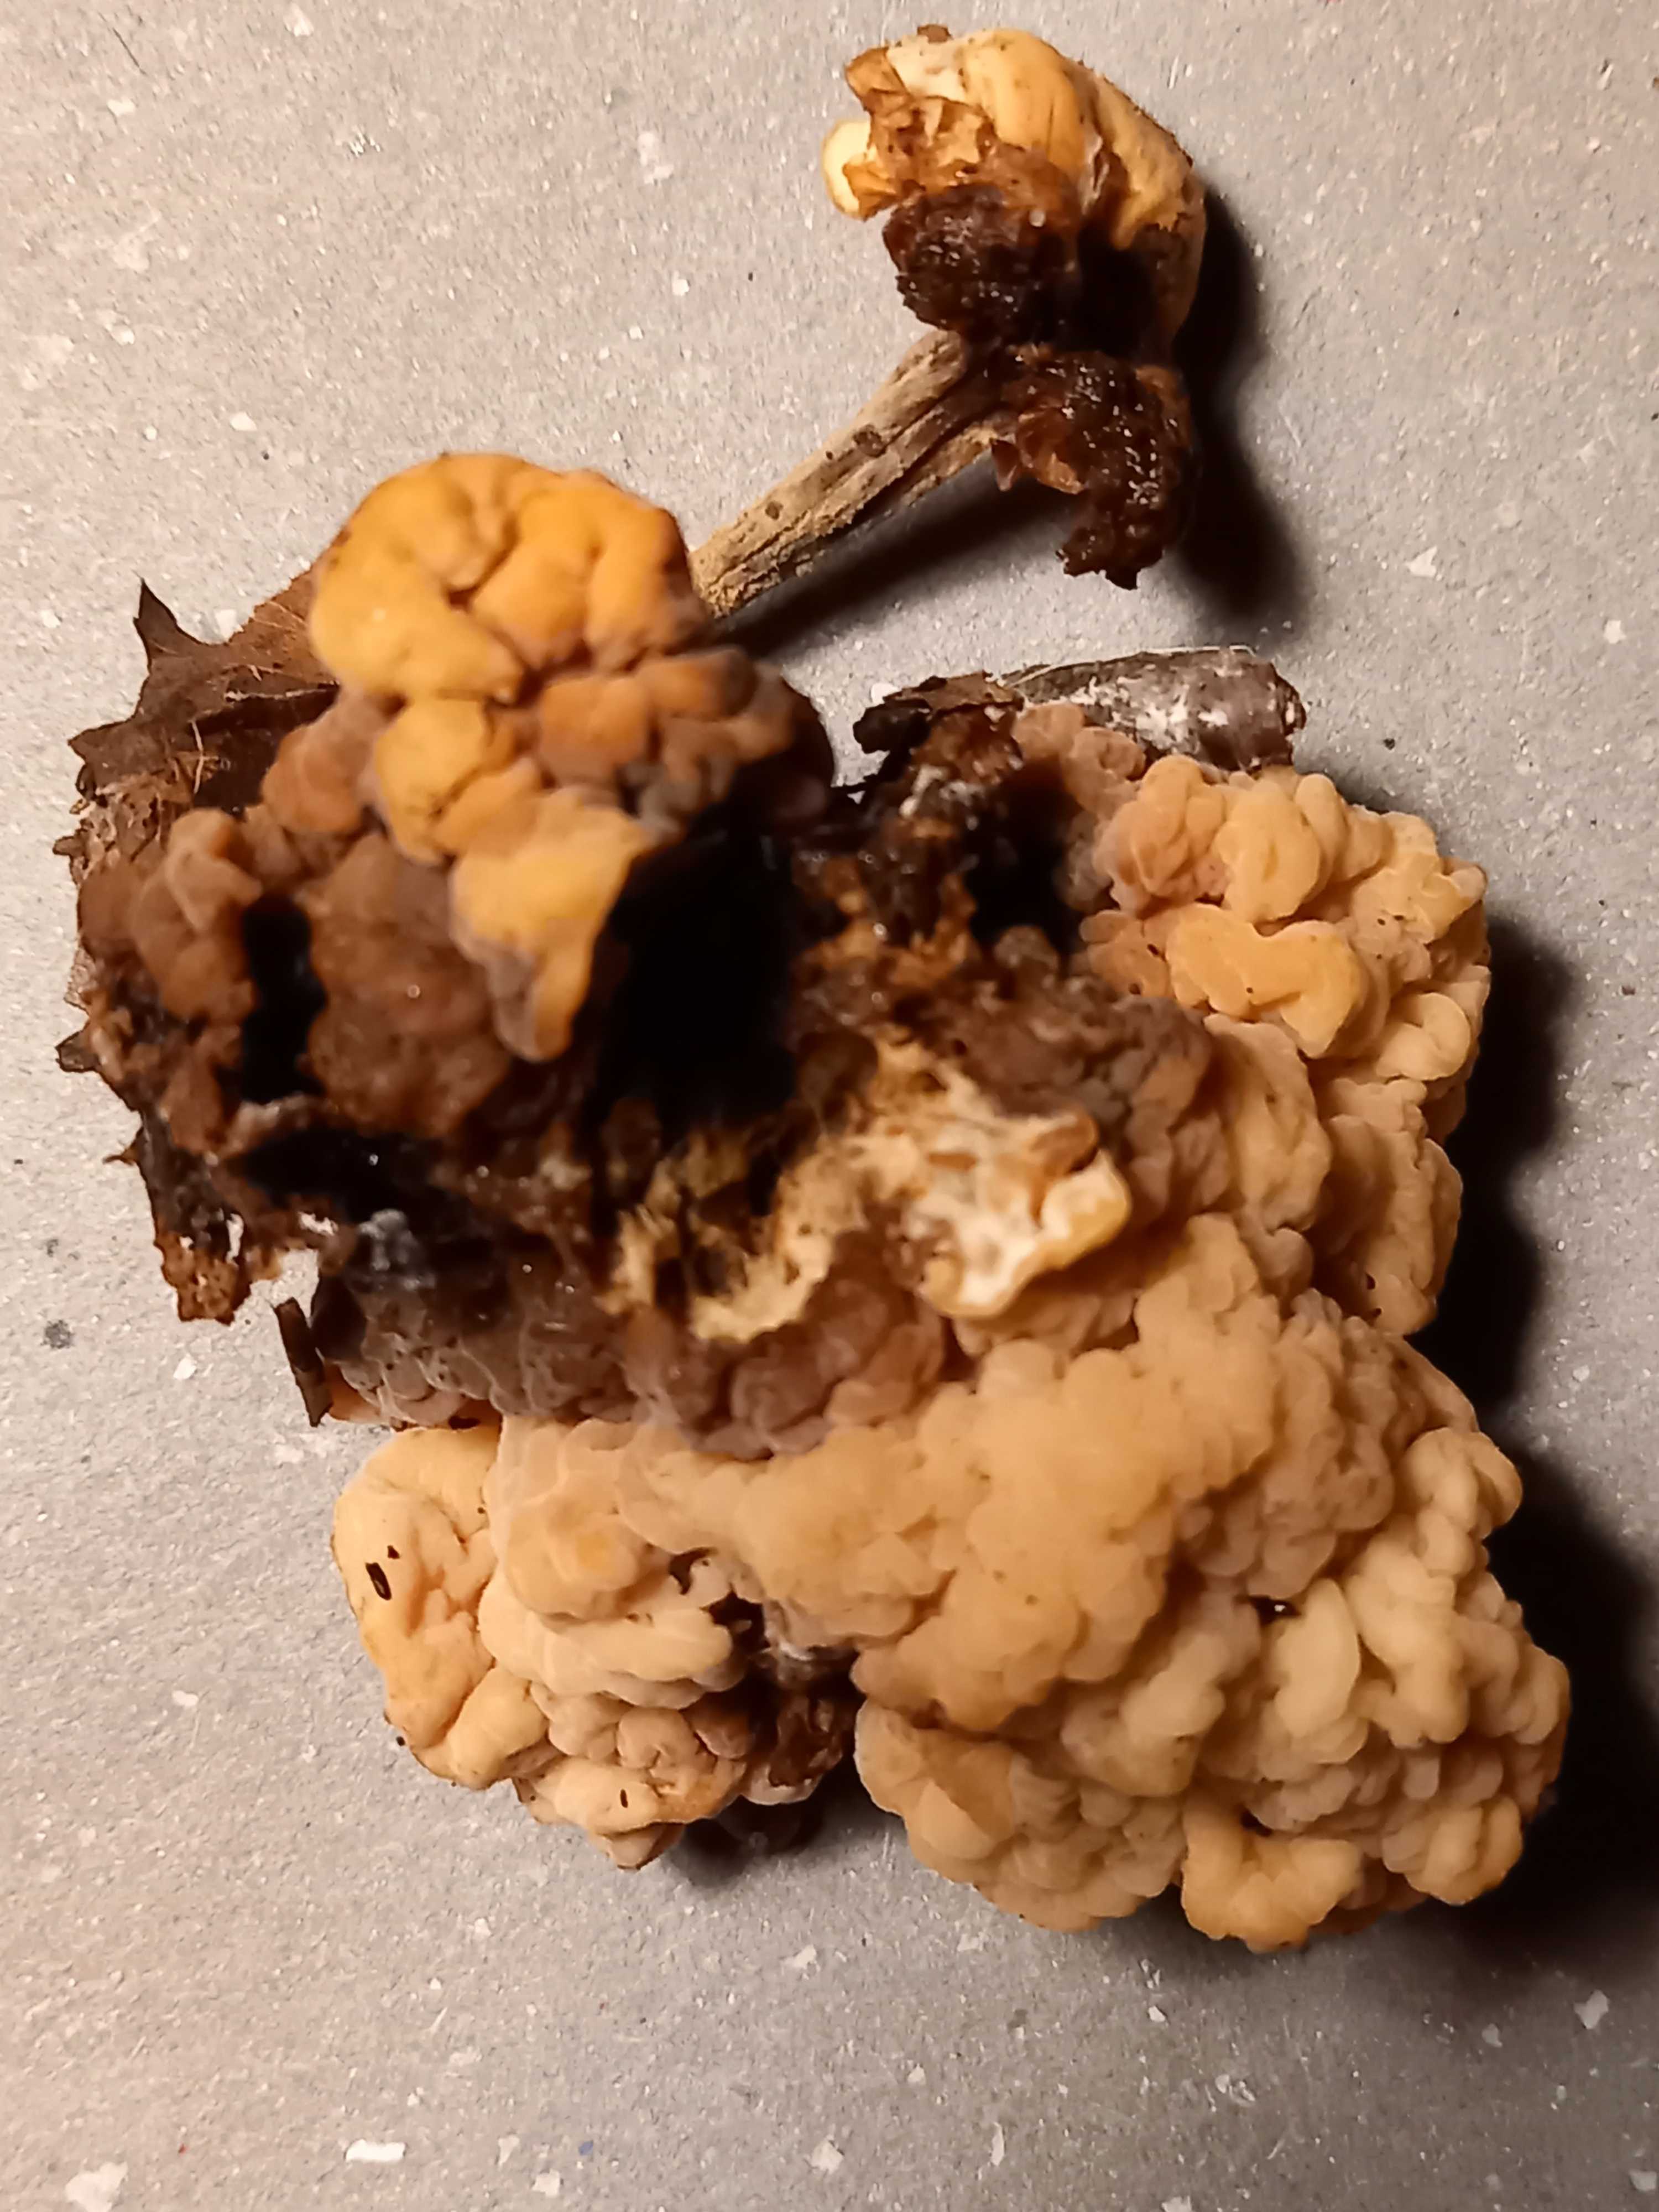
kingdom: Fungi
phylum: Basidiomycota
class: Tremellomycetes
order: Filobasidiales
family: Filobasidiaceae
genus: Syzygospora
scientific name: Syzygospora tumefaciens
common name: fladhatte-snyltehjerne
